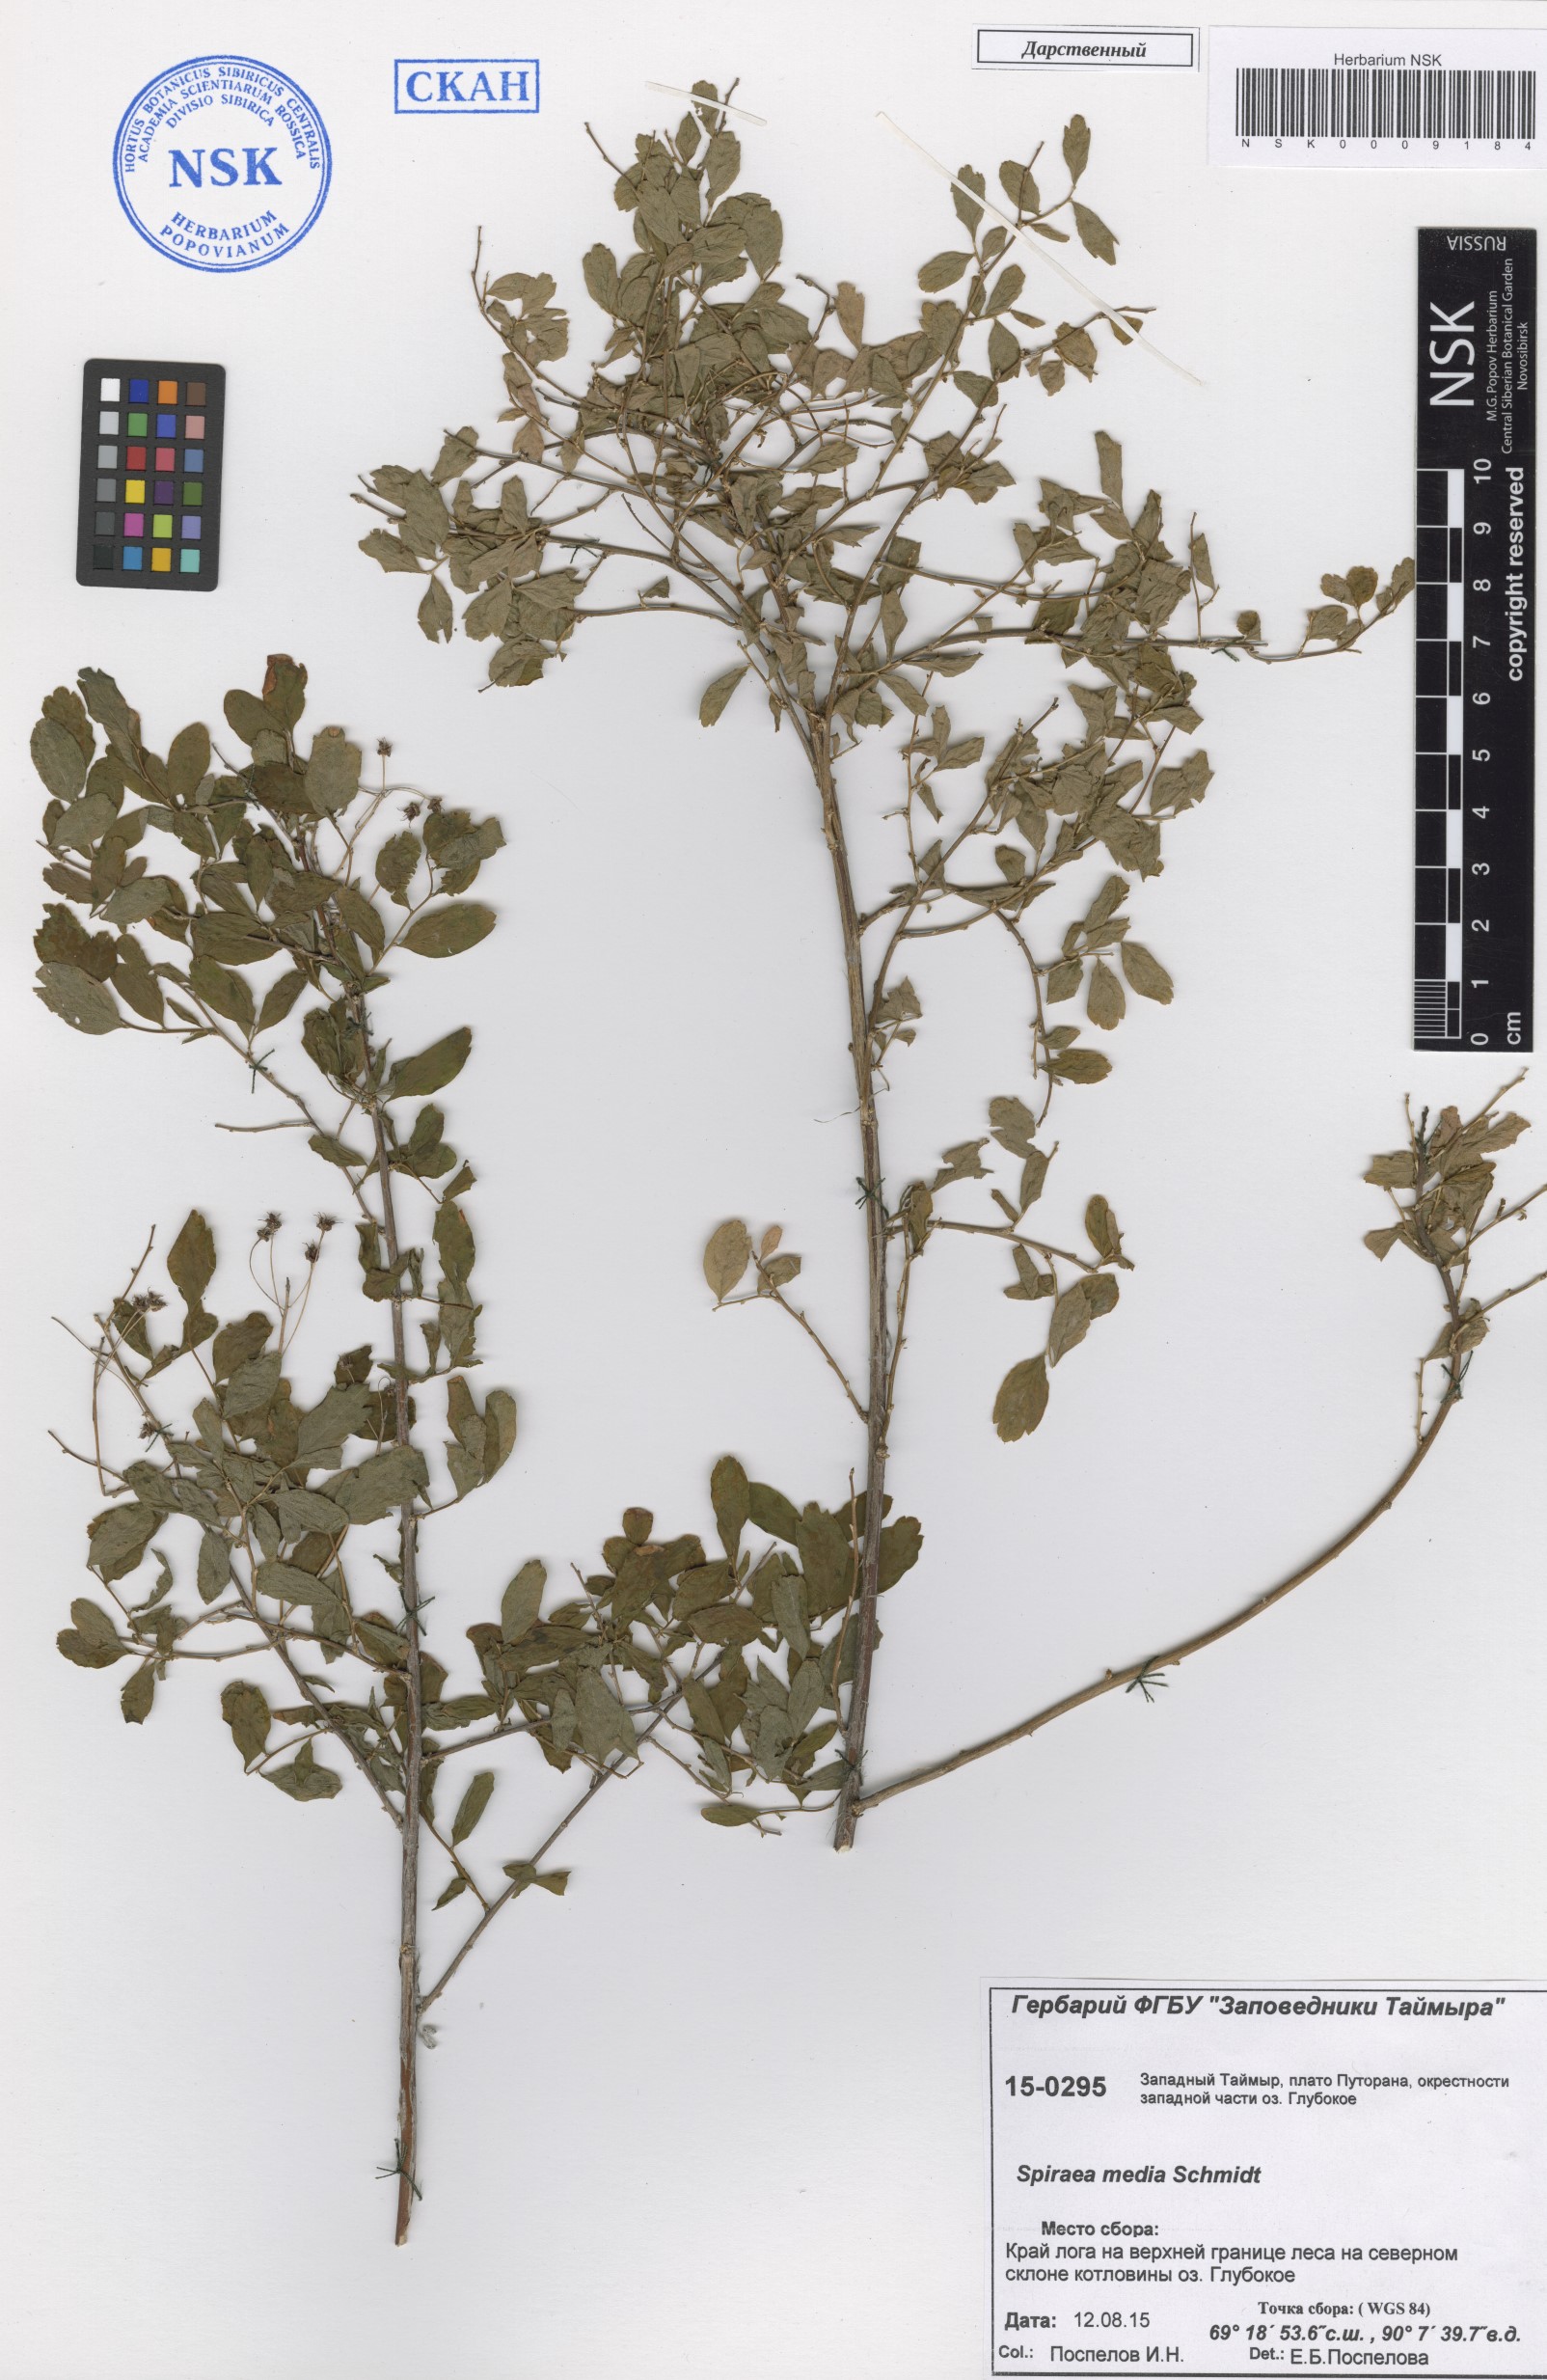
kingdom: Plantae
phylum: Tracheophyta
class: Magnoliopsida
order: Rosales
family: Rosaceae
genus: Spiraea
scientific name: Spiraea media
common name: Russian spiraea
